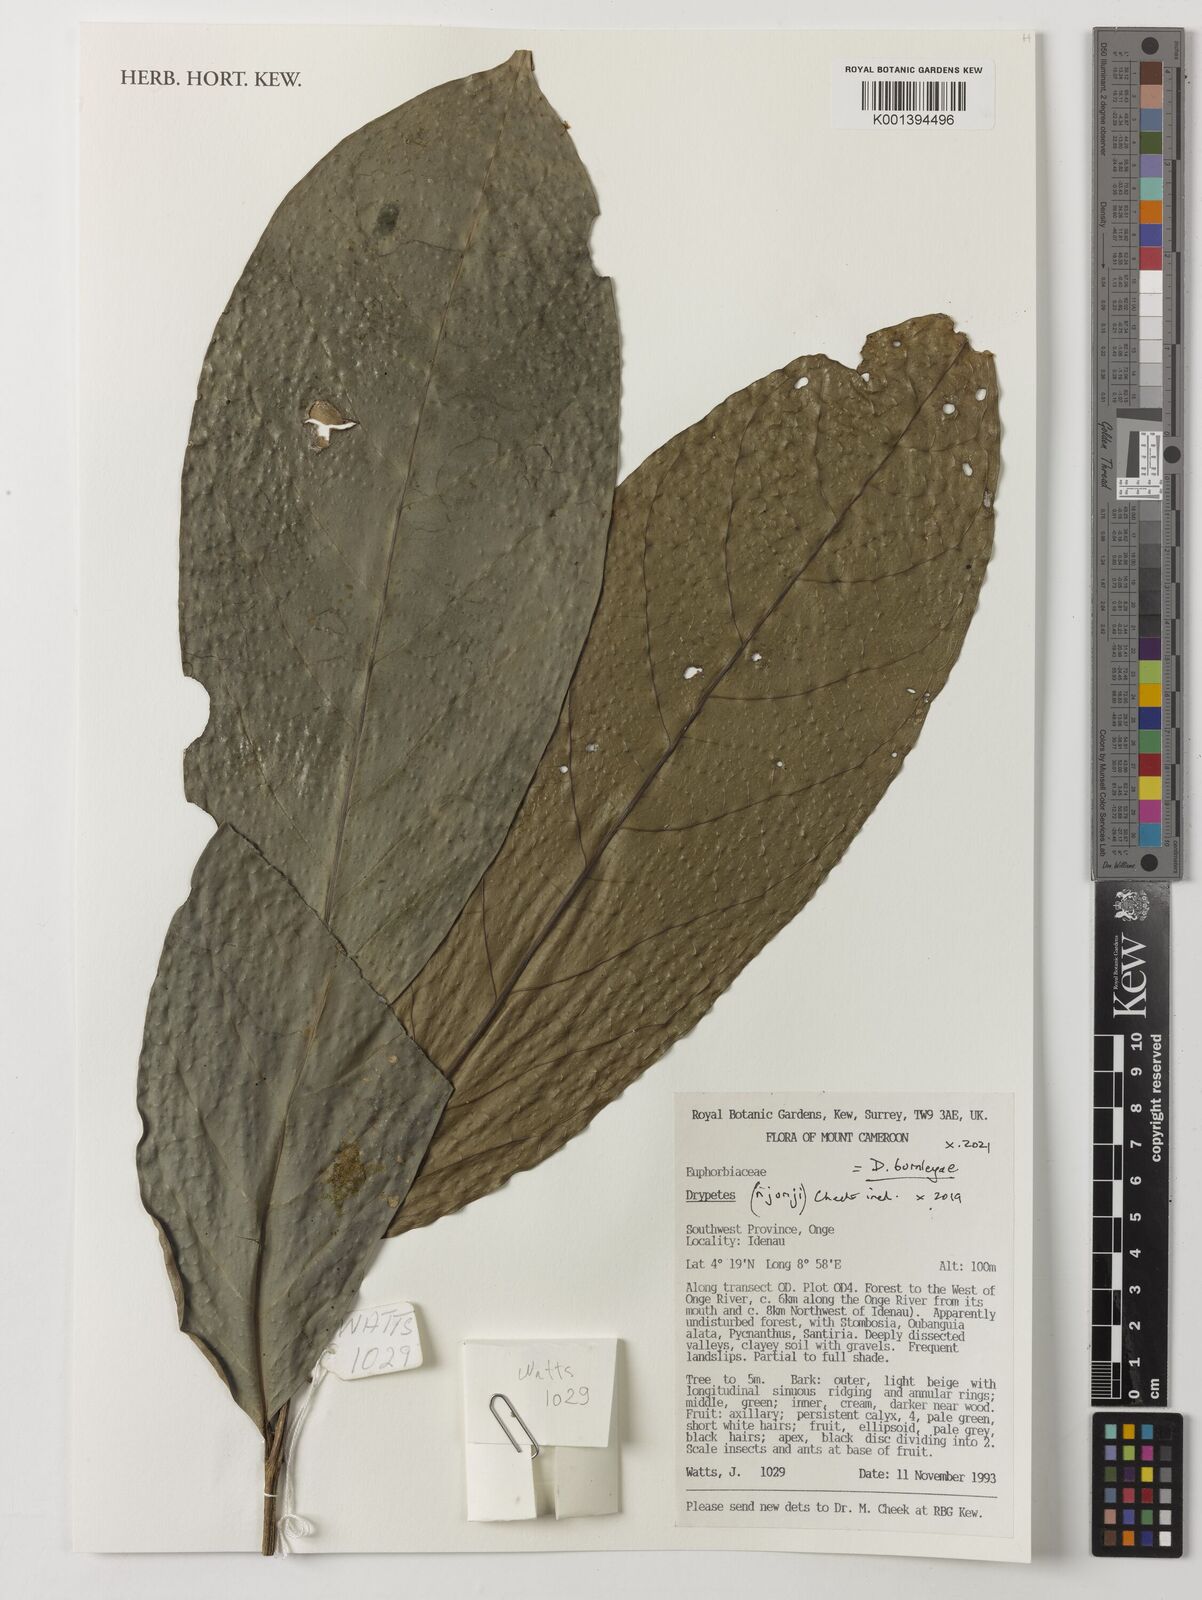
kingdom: Plantae
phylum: Tracheophyta
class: Magnoliopsida
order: Malpighiales
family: Putranjivaceae
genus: Drypetes
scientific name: Drypetes
